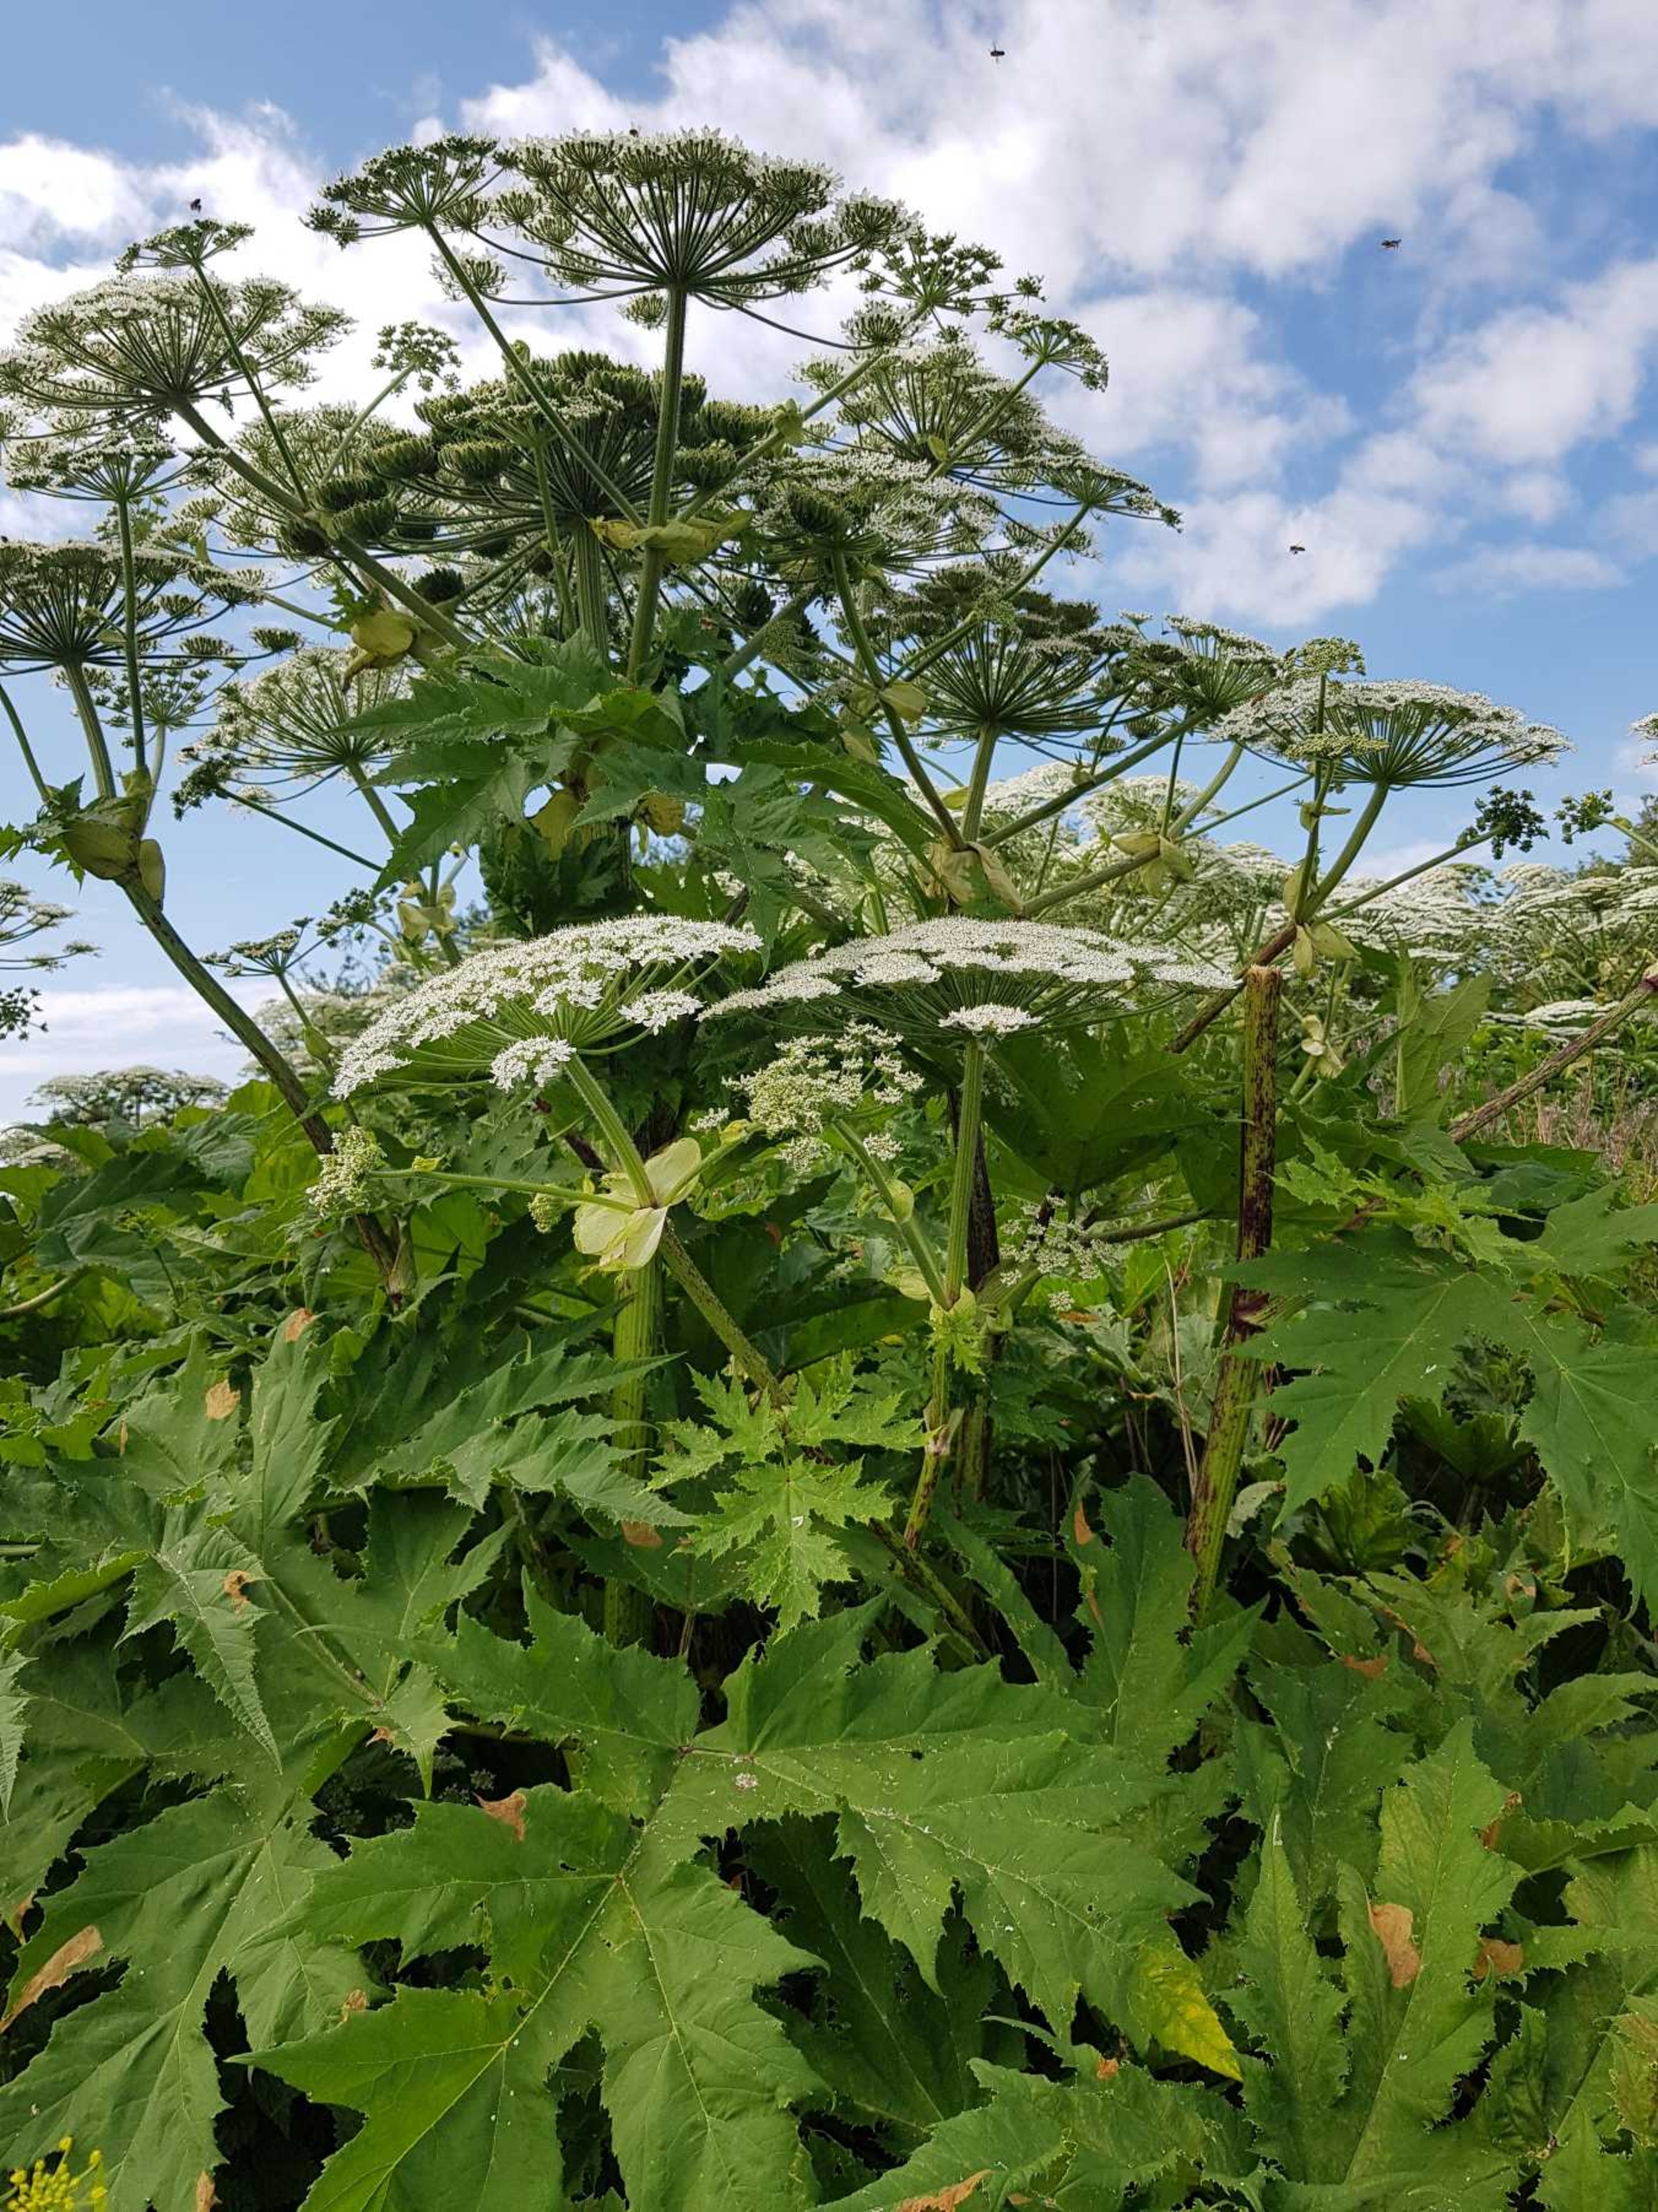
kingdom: Plantae
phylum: Tracheophyta
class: Magnoliopsida
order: Apiales
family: Apiaceae
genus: Heracleum
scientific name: Heracleum mantegazzianum
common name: Kæmpe-bjørneklo
